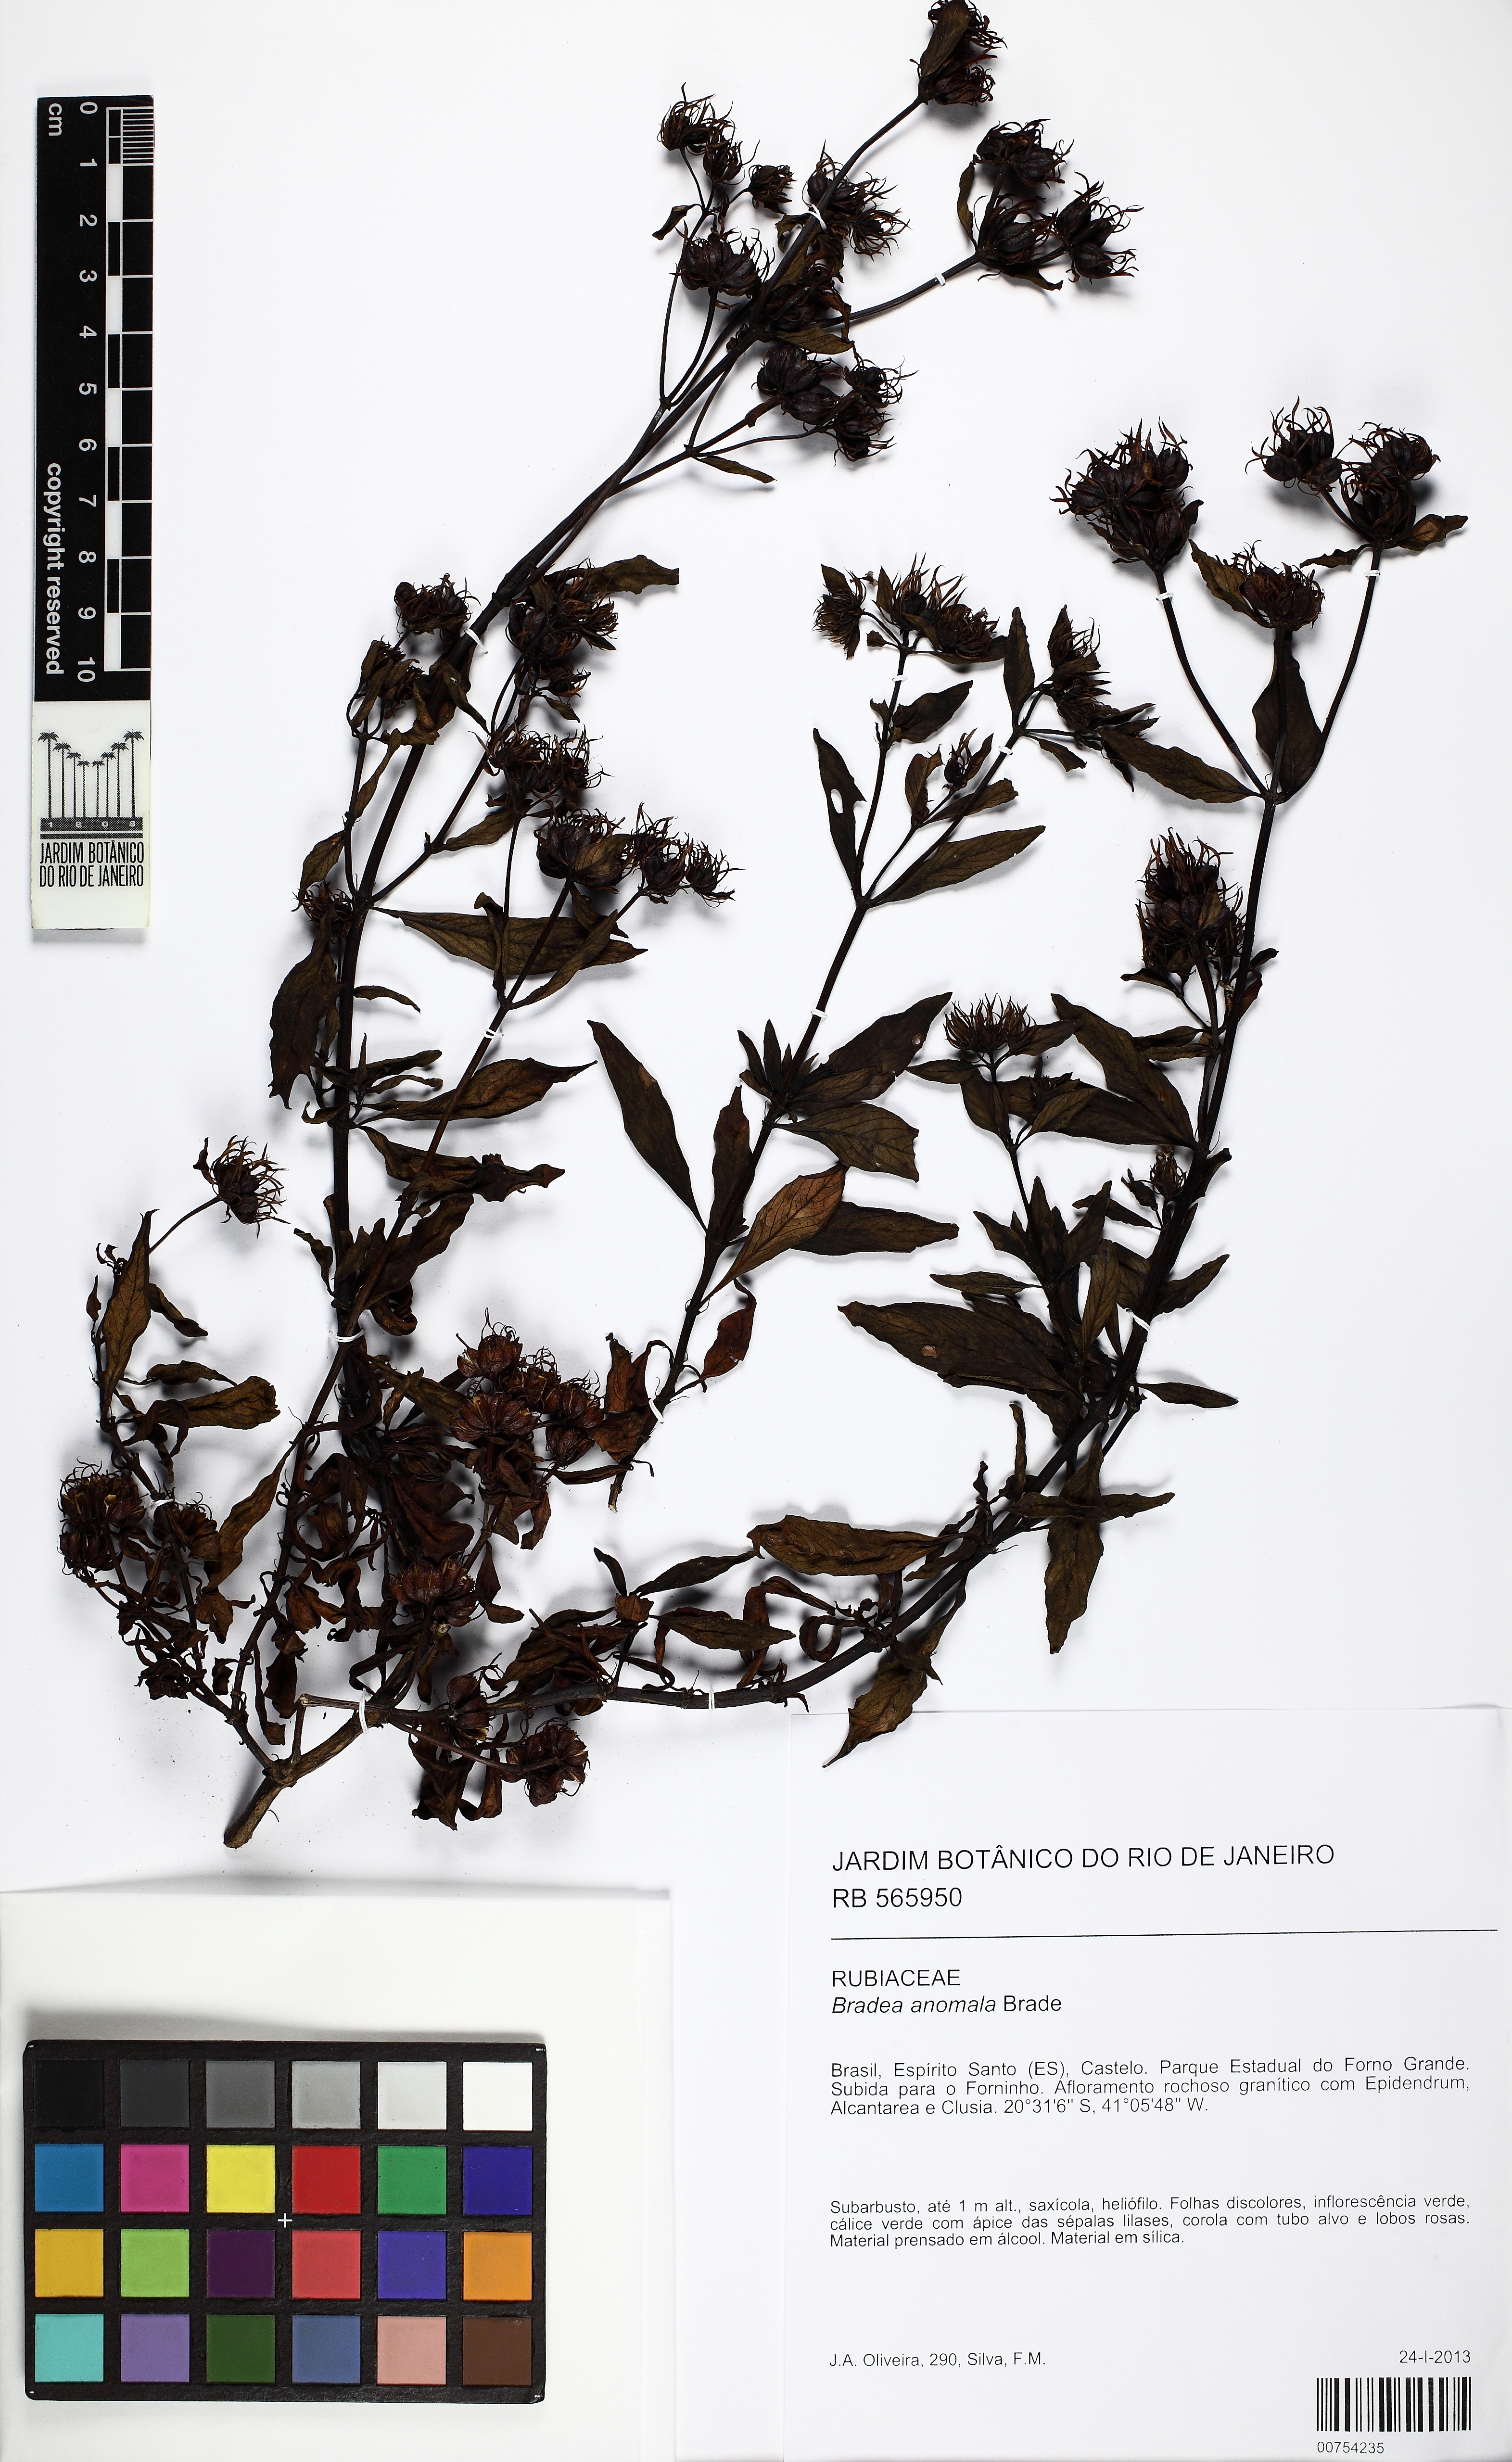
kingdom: Plantae
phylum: Tracheophyta
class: Magnoliopsida
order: Gentianales
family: Rubiaceae
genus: Bradea
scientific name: Bradea anomala
